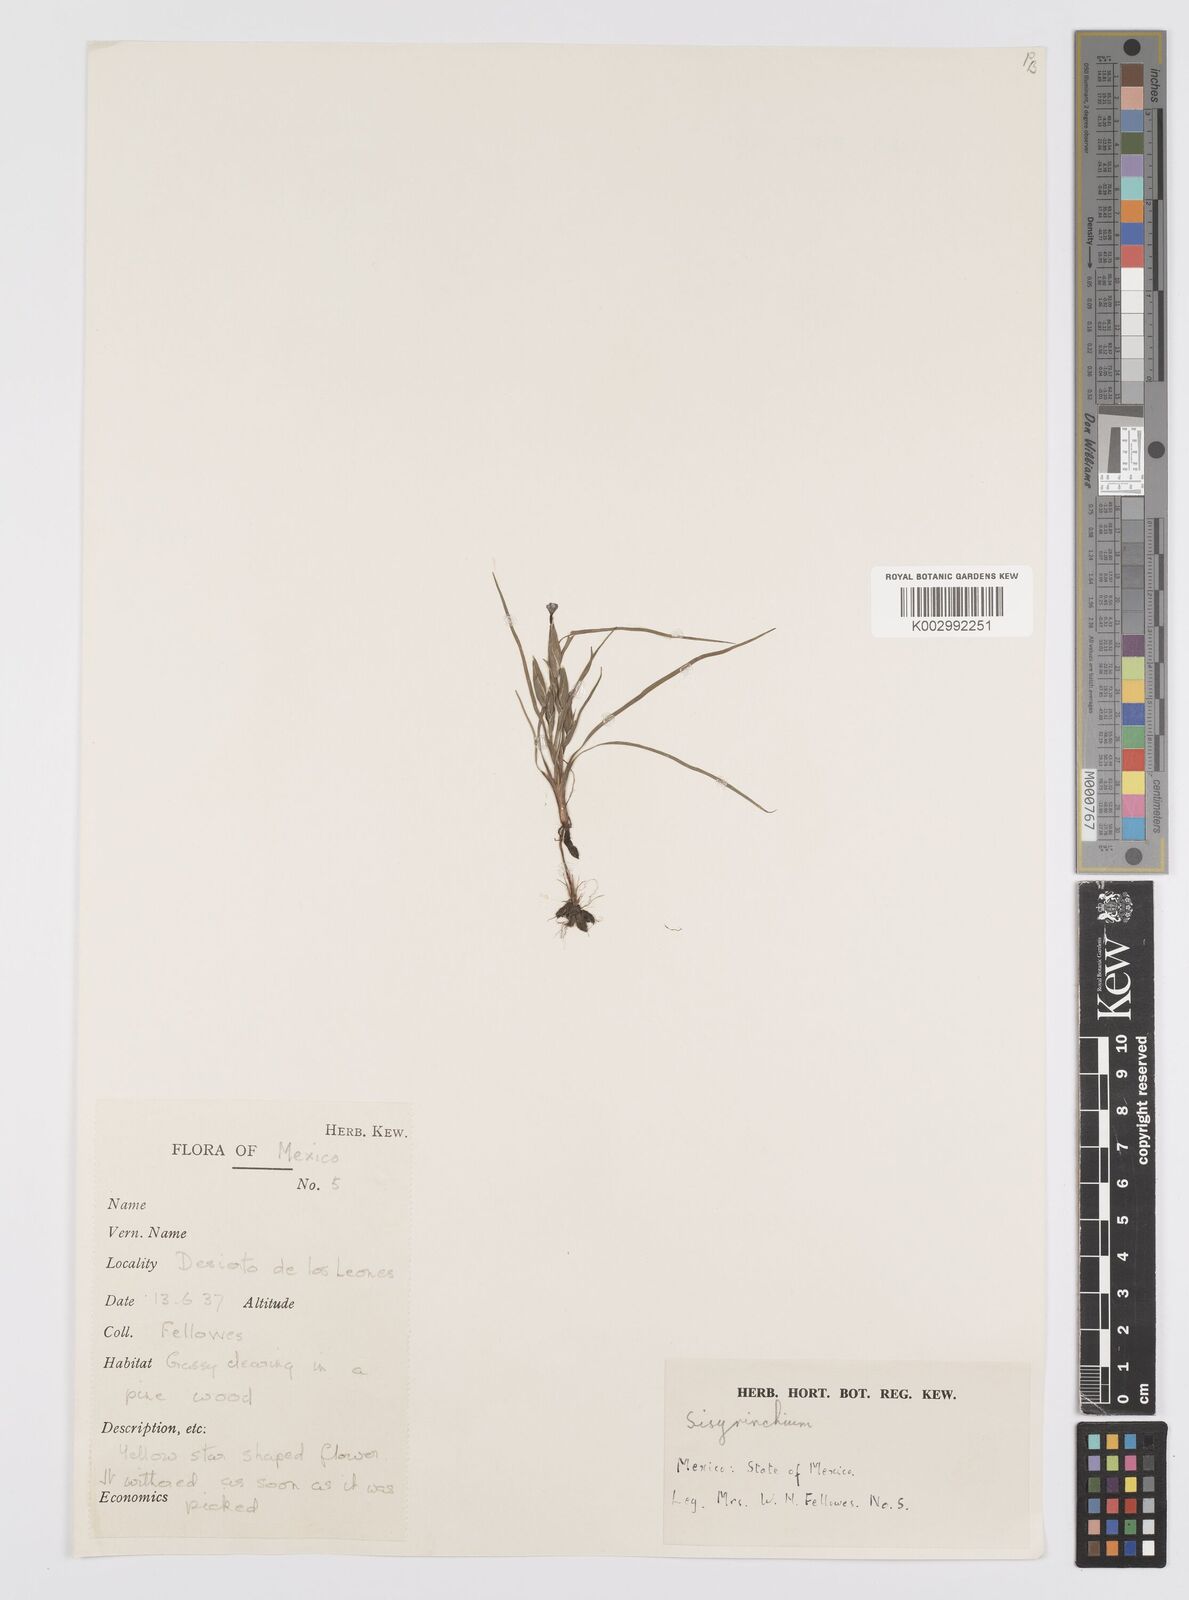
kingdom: Plantae
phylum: Tracheophyta
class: Liliopsida
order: Asparagales
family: Iridaceae
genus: Sisyrinchium
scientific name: Sisyrinchium
